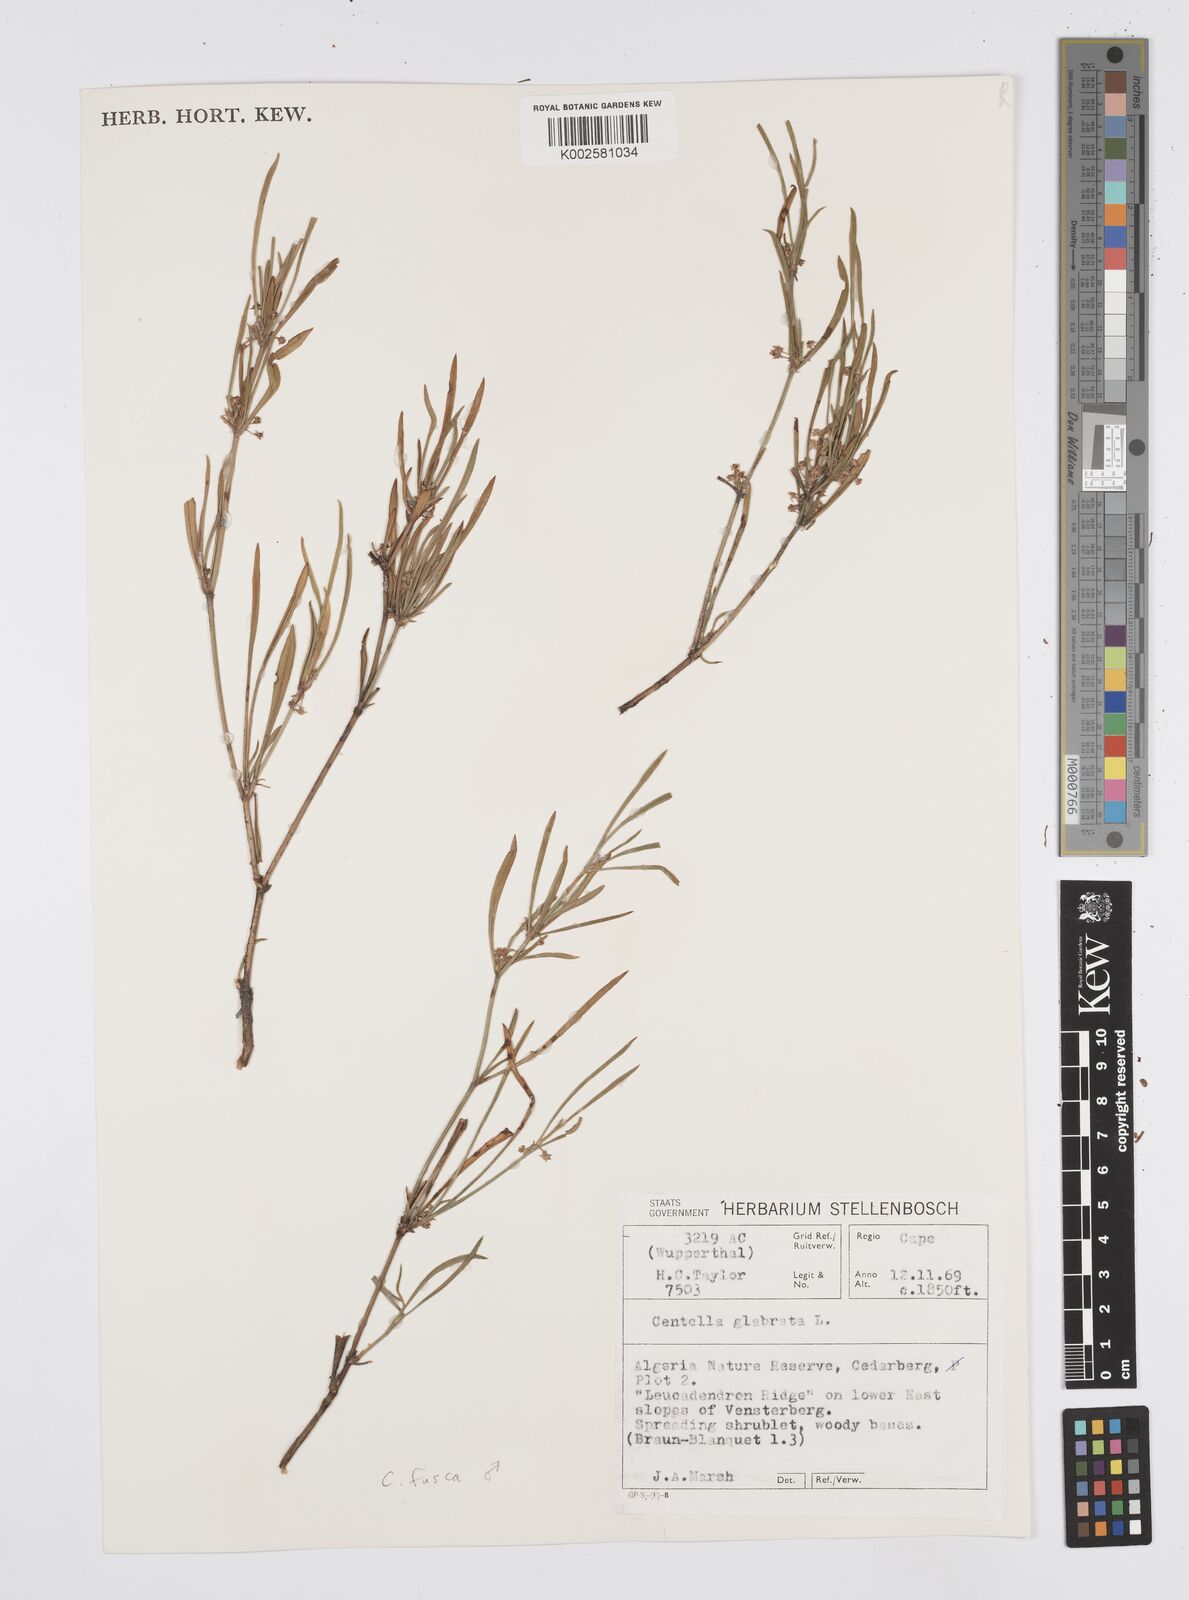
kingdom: Plantae
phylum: Tracheophyta
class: Magnoliopsida
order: Apiales
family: Apiaceae
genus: Centella
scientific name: Centella glabrata
